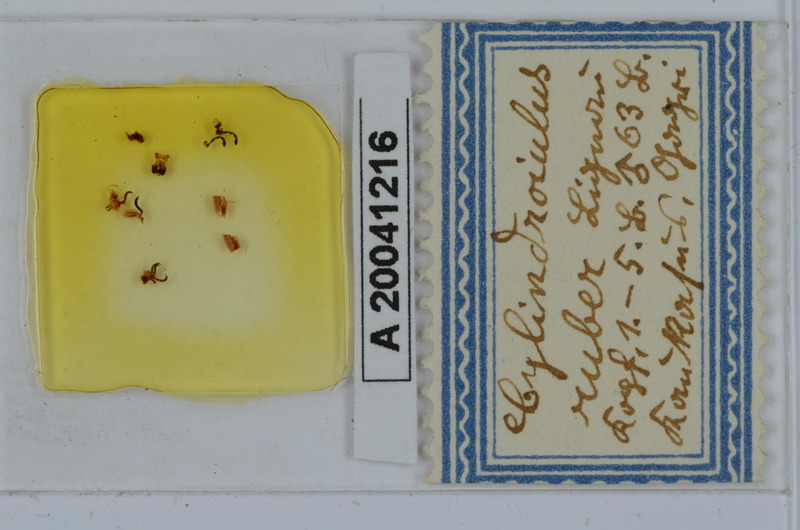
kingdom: Animalia
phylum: Arthropoda
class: Diplopoda
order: Julida
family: Julidae
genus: Caucasoiulus
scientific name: Caucasoiulus ruber
